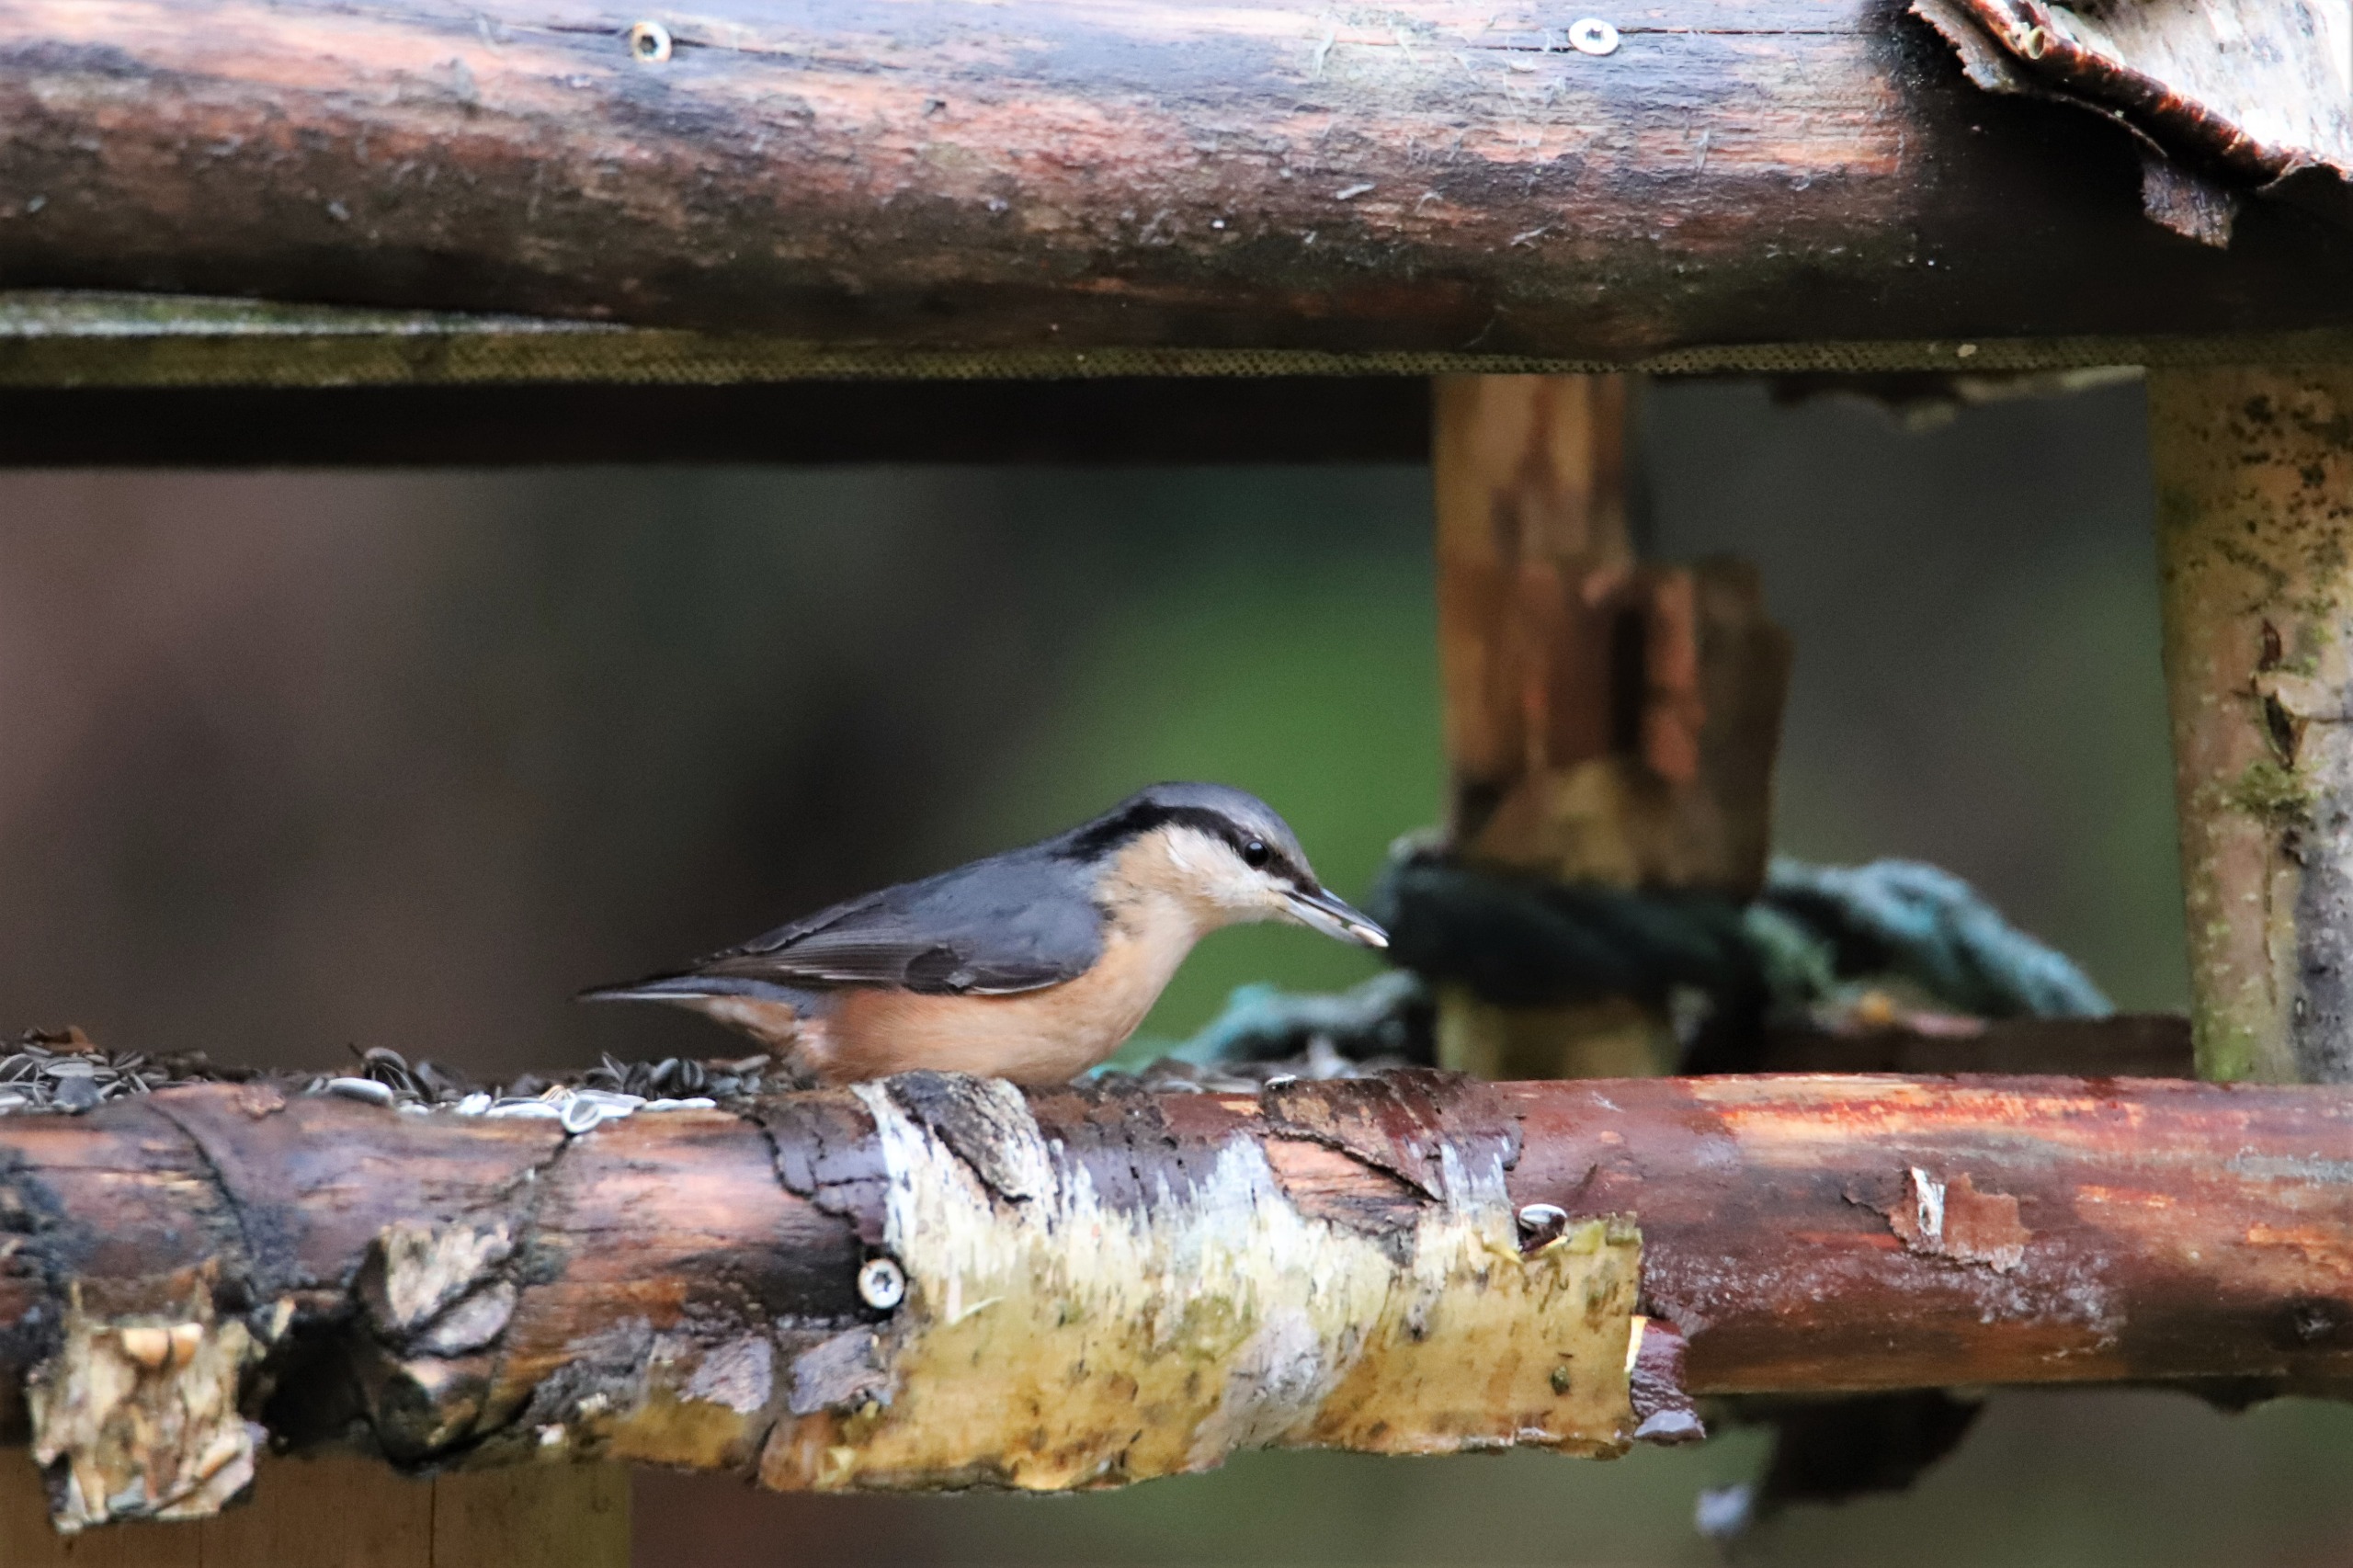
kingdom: Animalia
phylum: Chordata
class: Aves
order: Passeriformes
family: Sittidae
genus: Sitta
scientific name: Sitta europaea
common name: Spætmejse
